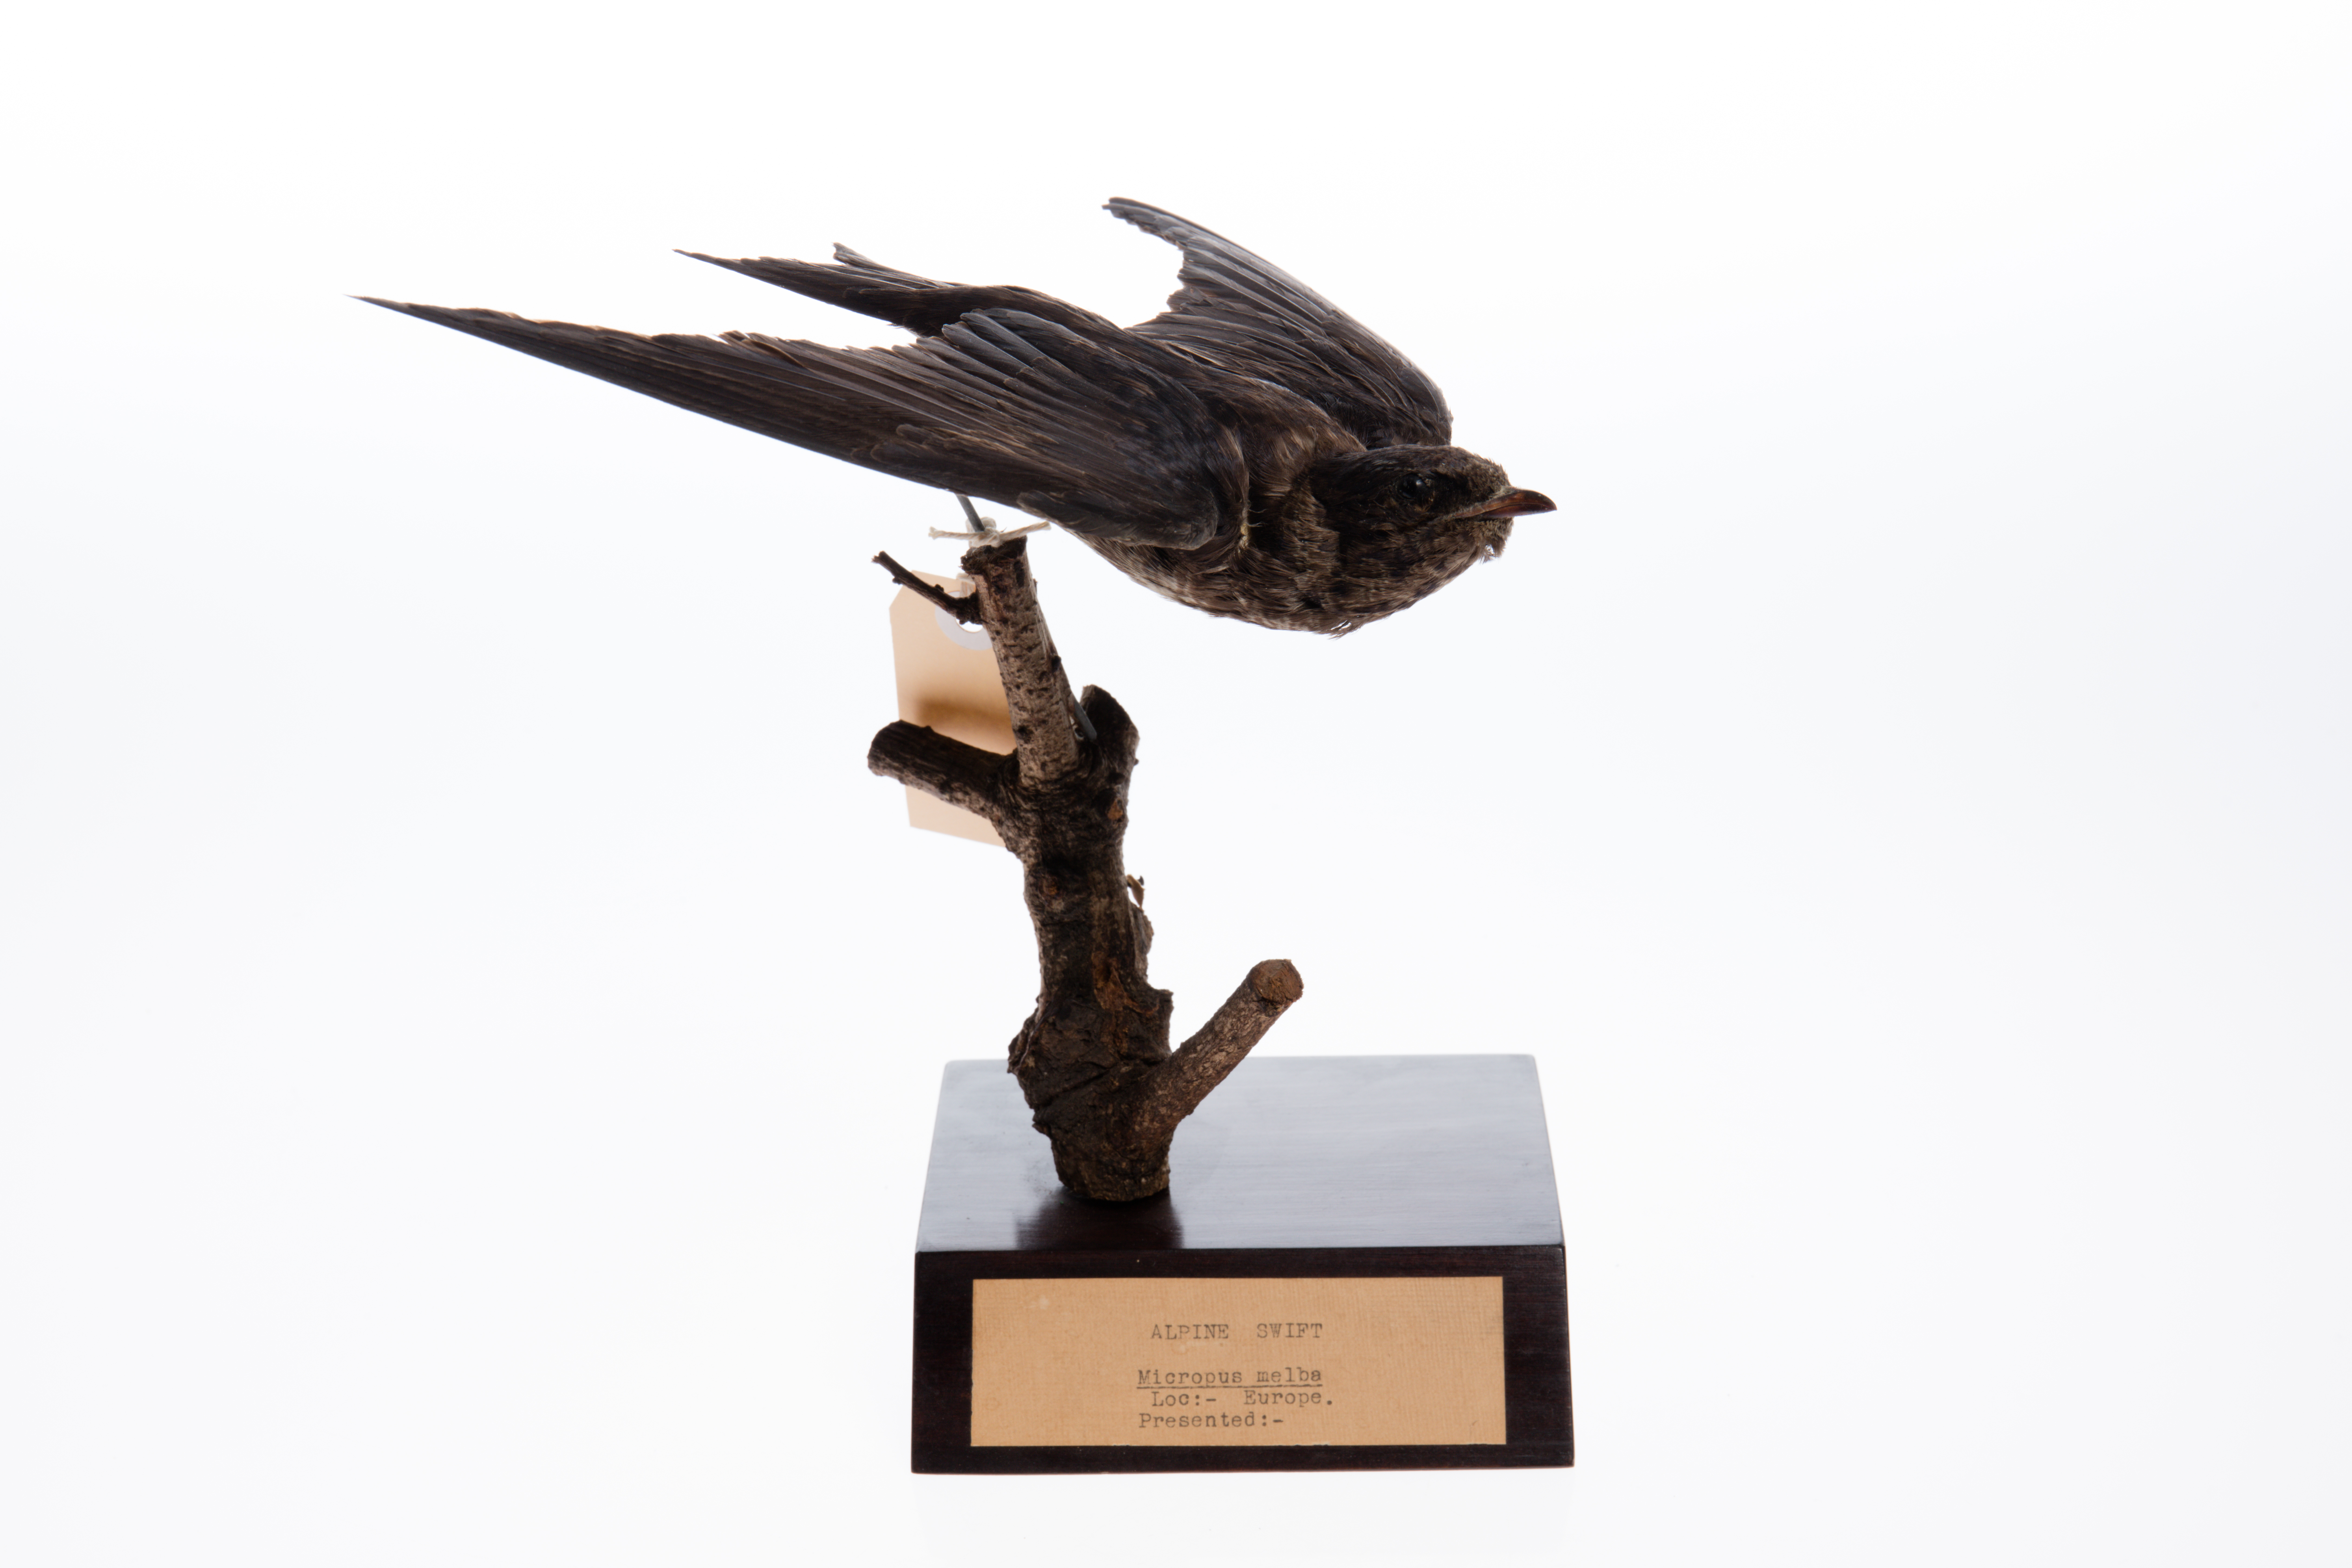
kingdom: Animalia
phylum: Chordata
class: Aves
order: Apodiformes
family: Apodidae
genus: Tachymarptis
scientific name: Tachymarptis melba
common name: Alpine swift
